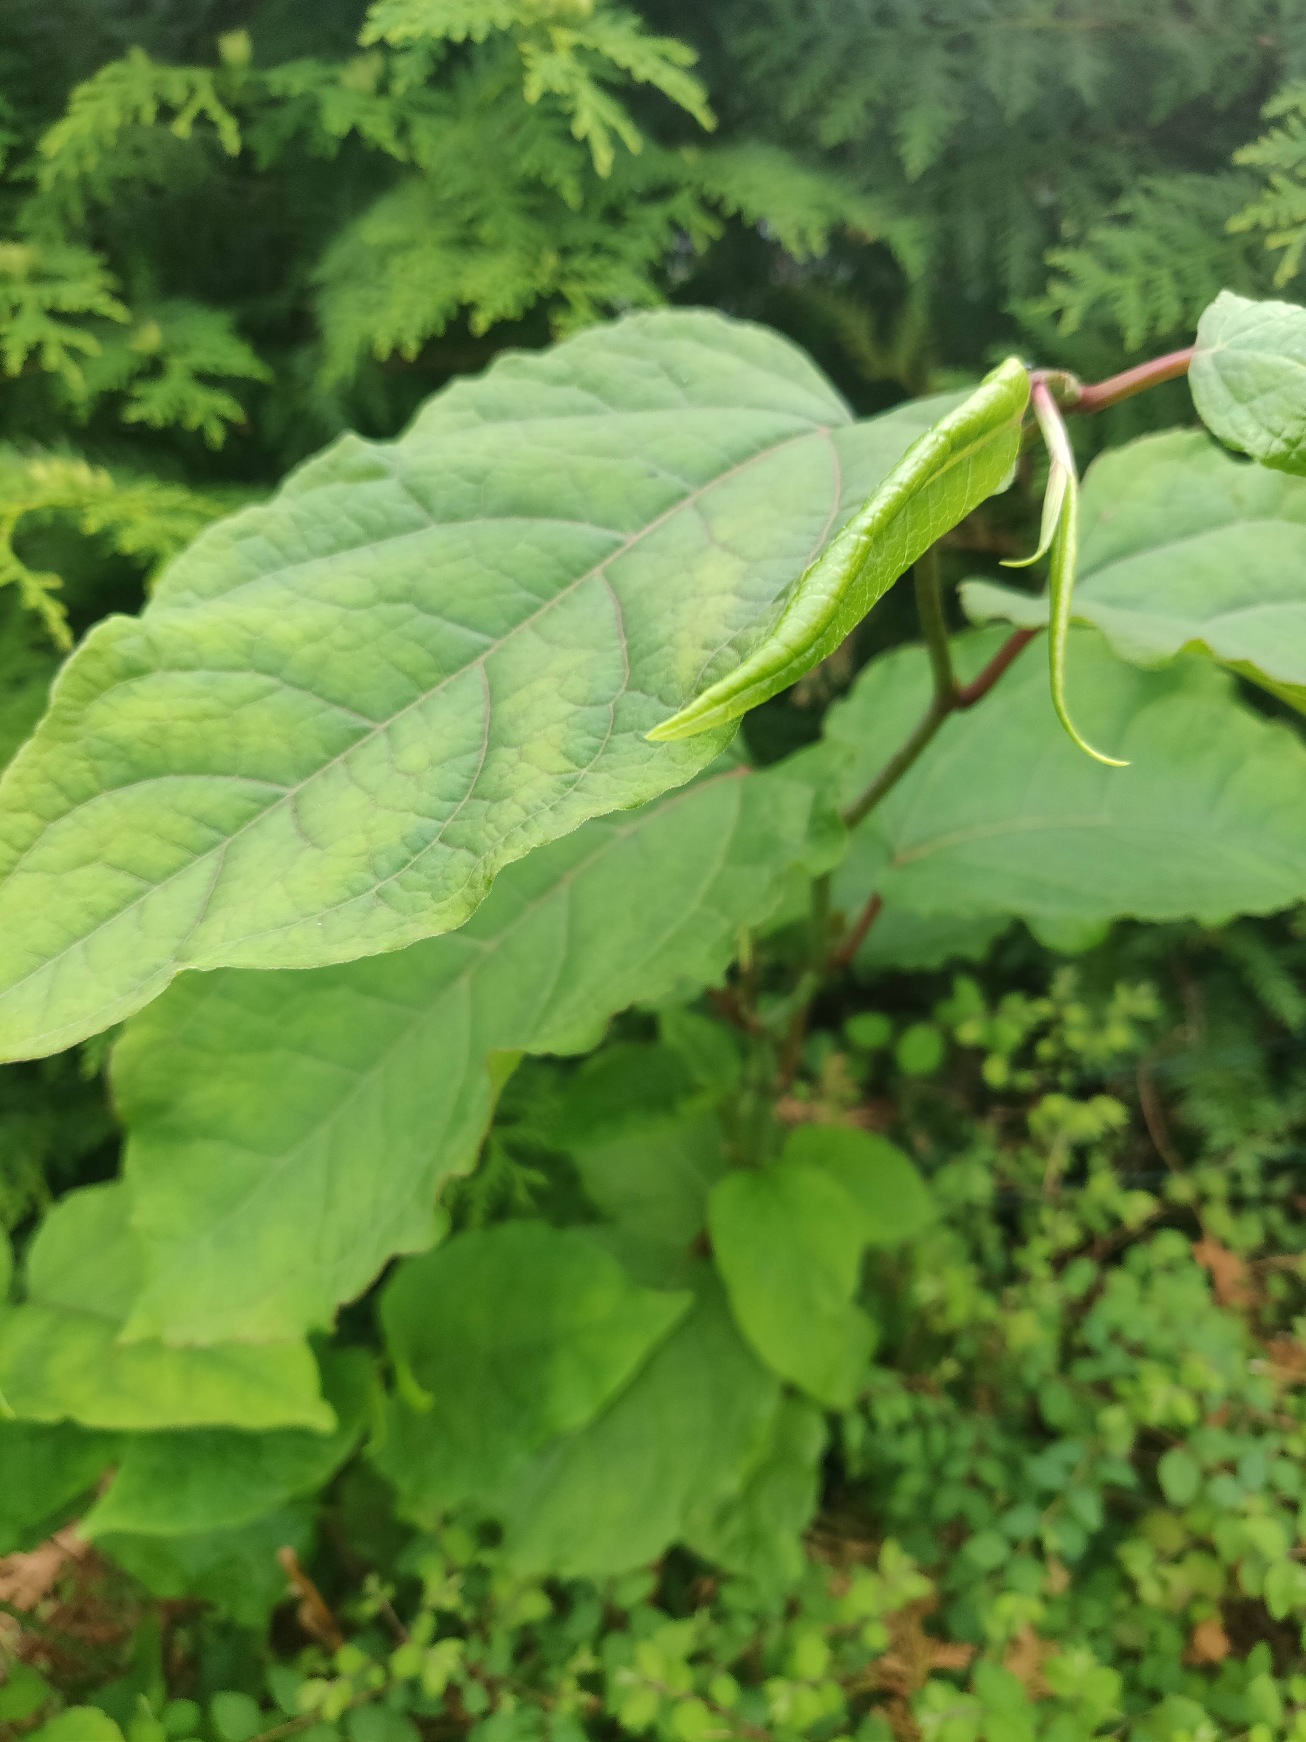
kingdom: Plantae
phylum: Tracheophyta
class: Magnoliopsida
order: Caryophyllales
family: Polygonaceae
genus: Reynoutria
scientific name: Reynoutria bohemica
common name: Hybrid-pileurt
